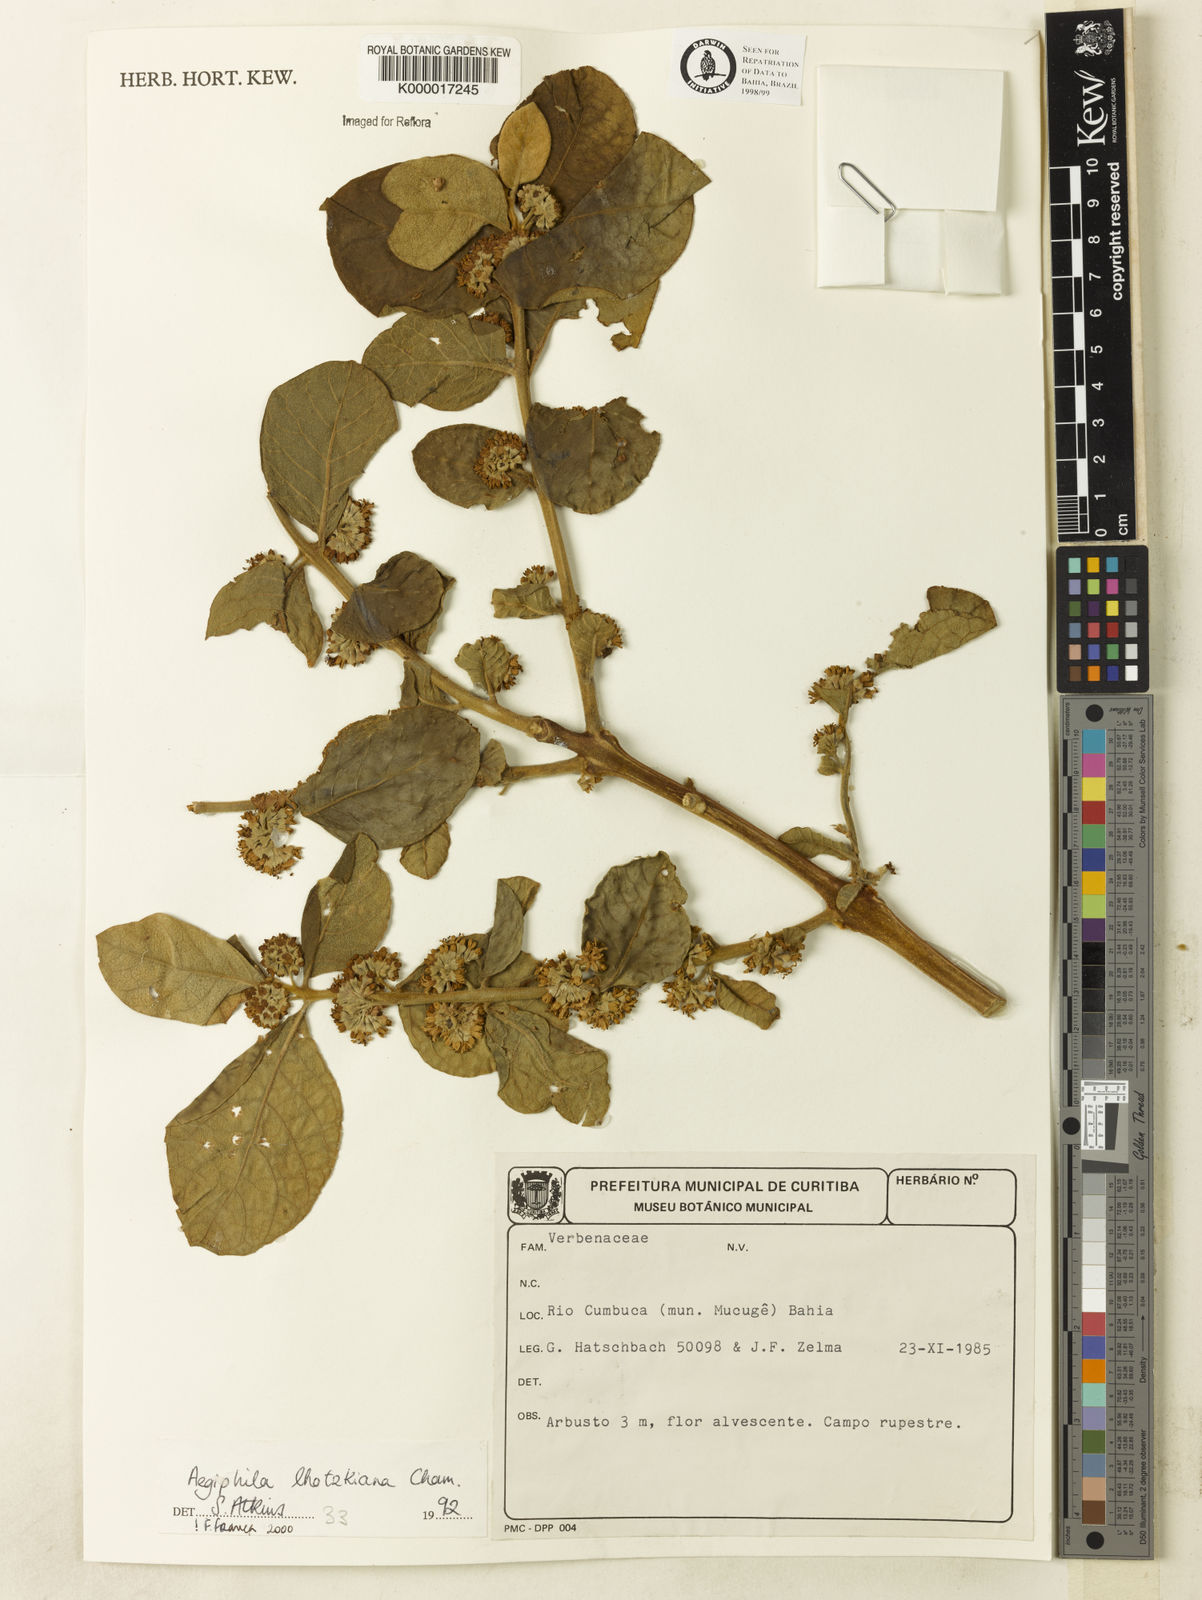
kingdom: Plantae
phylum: Tracheophyta
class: Magnoliopsida
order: Lamiales
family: Lamiaceae
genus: Aegiphila
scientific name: Aegiphila verticillata
